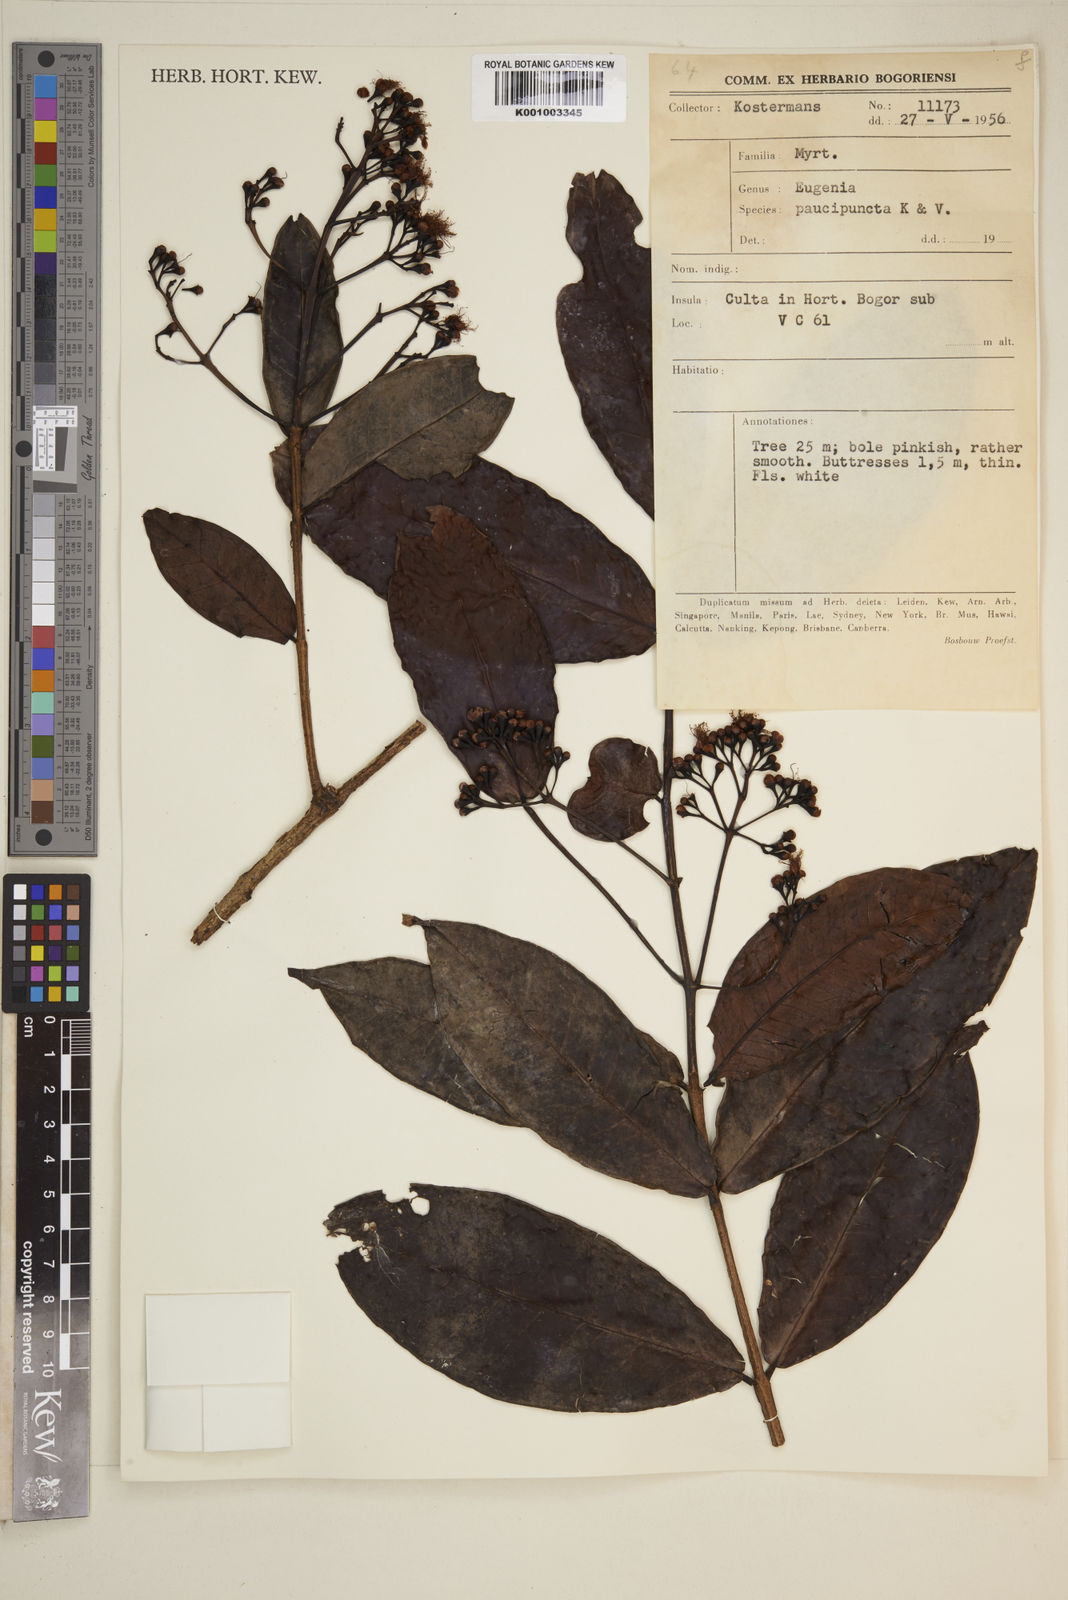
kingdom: Plantae
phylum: Tracheophyta
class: Magnoliopsida
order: Myrtales
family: Myrtaceae
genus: Eugenia
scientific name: Eugenia
